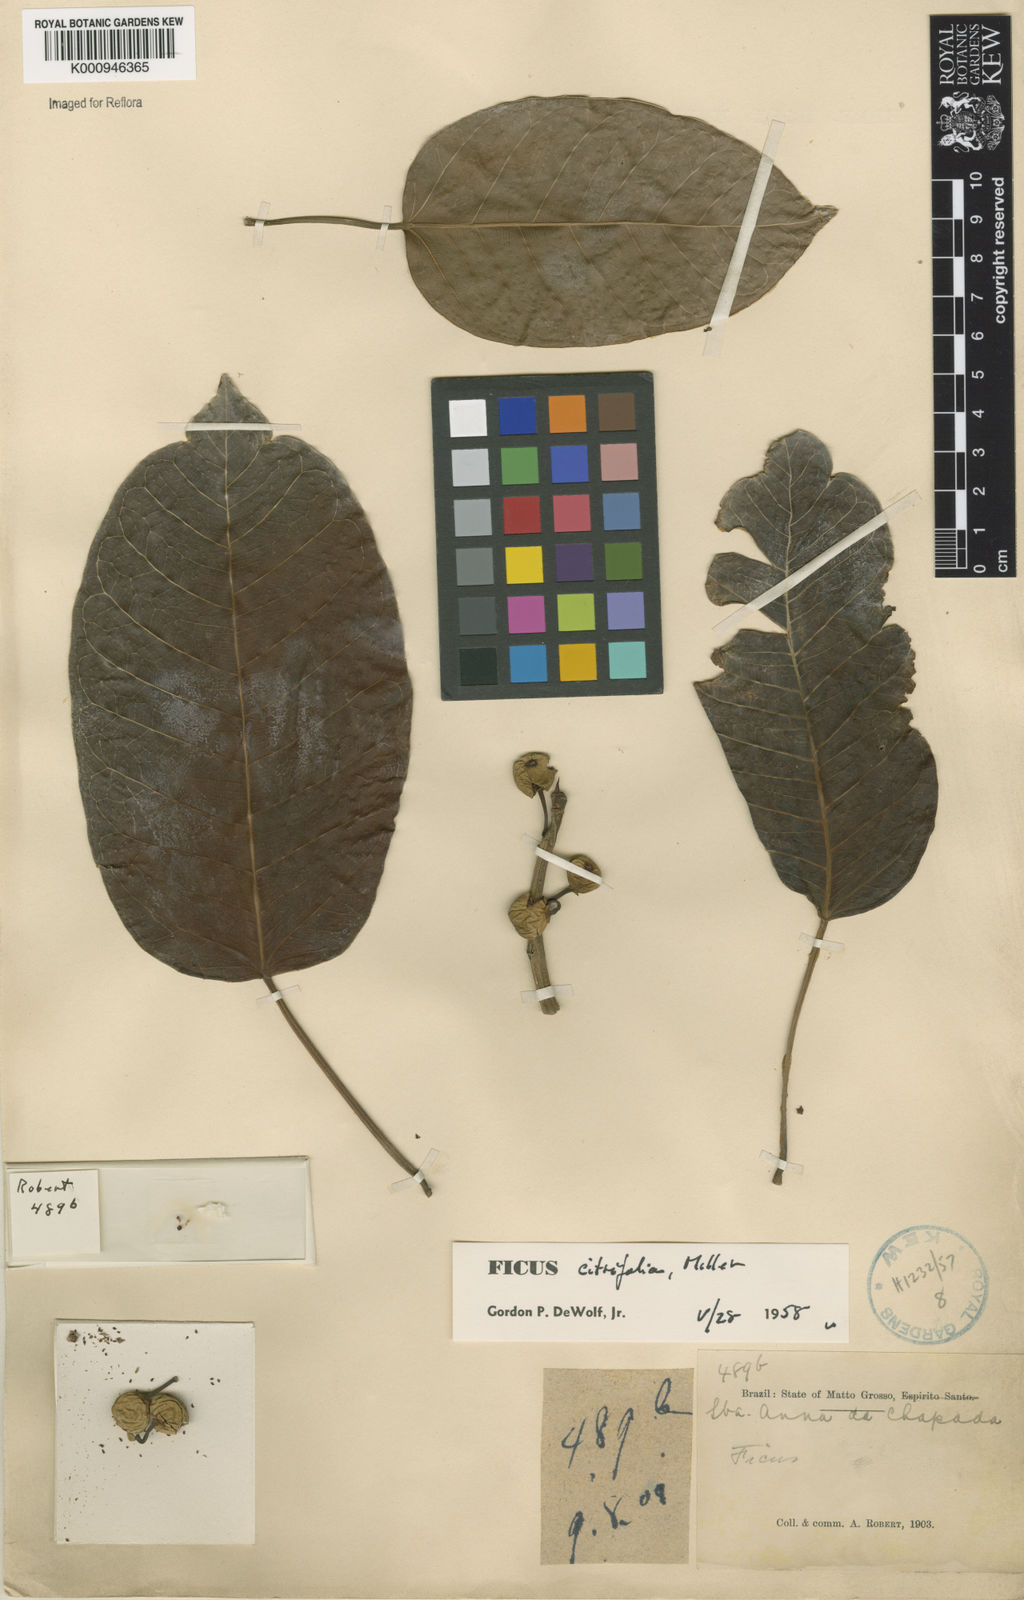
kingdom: Plantae
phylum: Tracheophyta
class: Magnoliopsida
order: Rosales
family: Moraceae
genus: Ficus
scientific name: Ficus citrifolia
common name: Strangler fig
